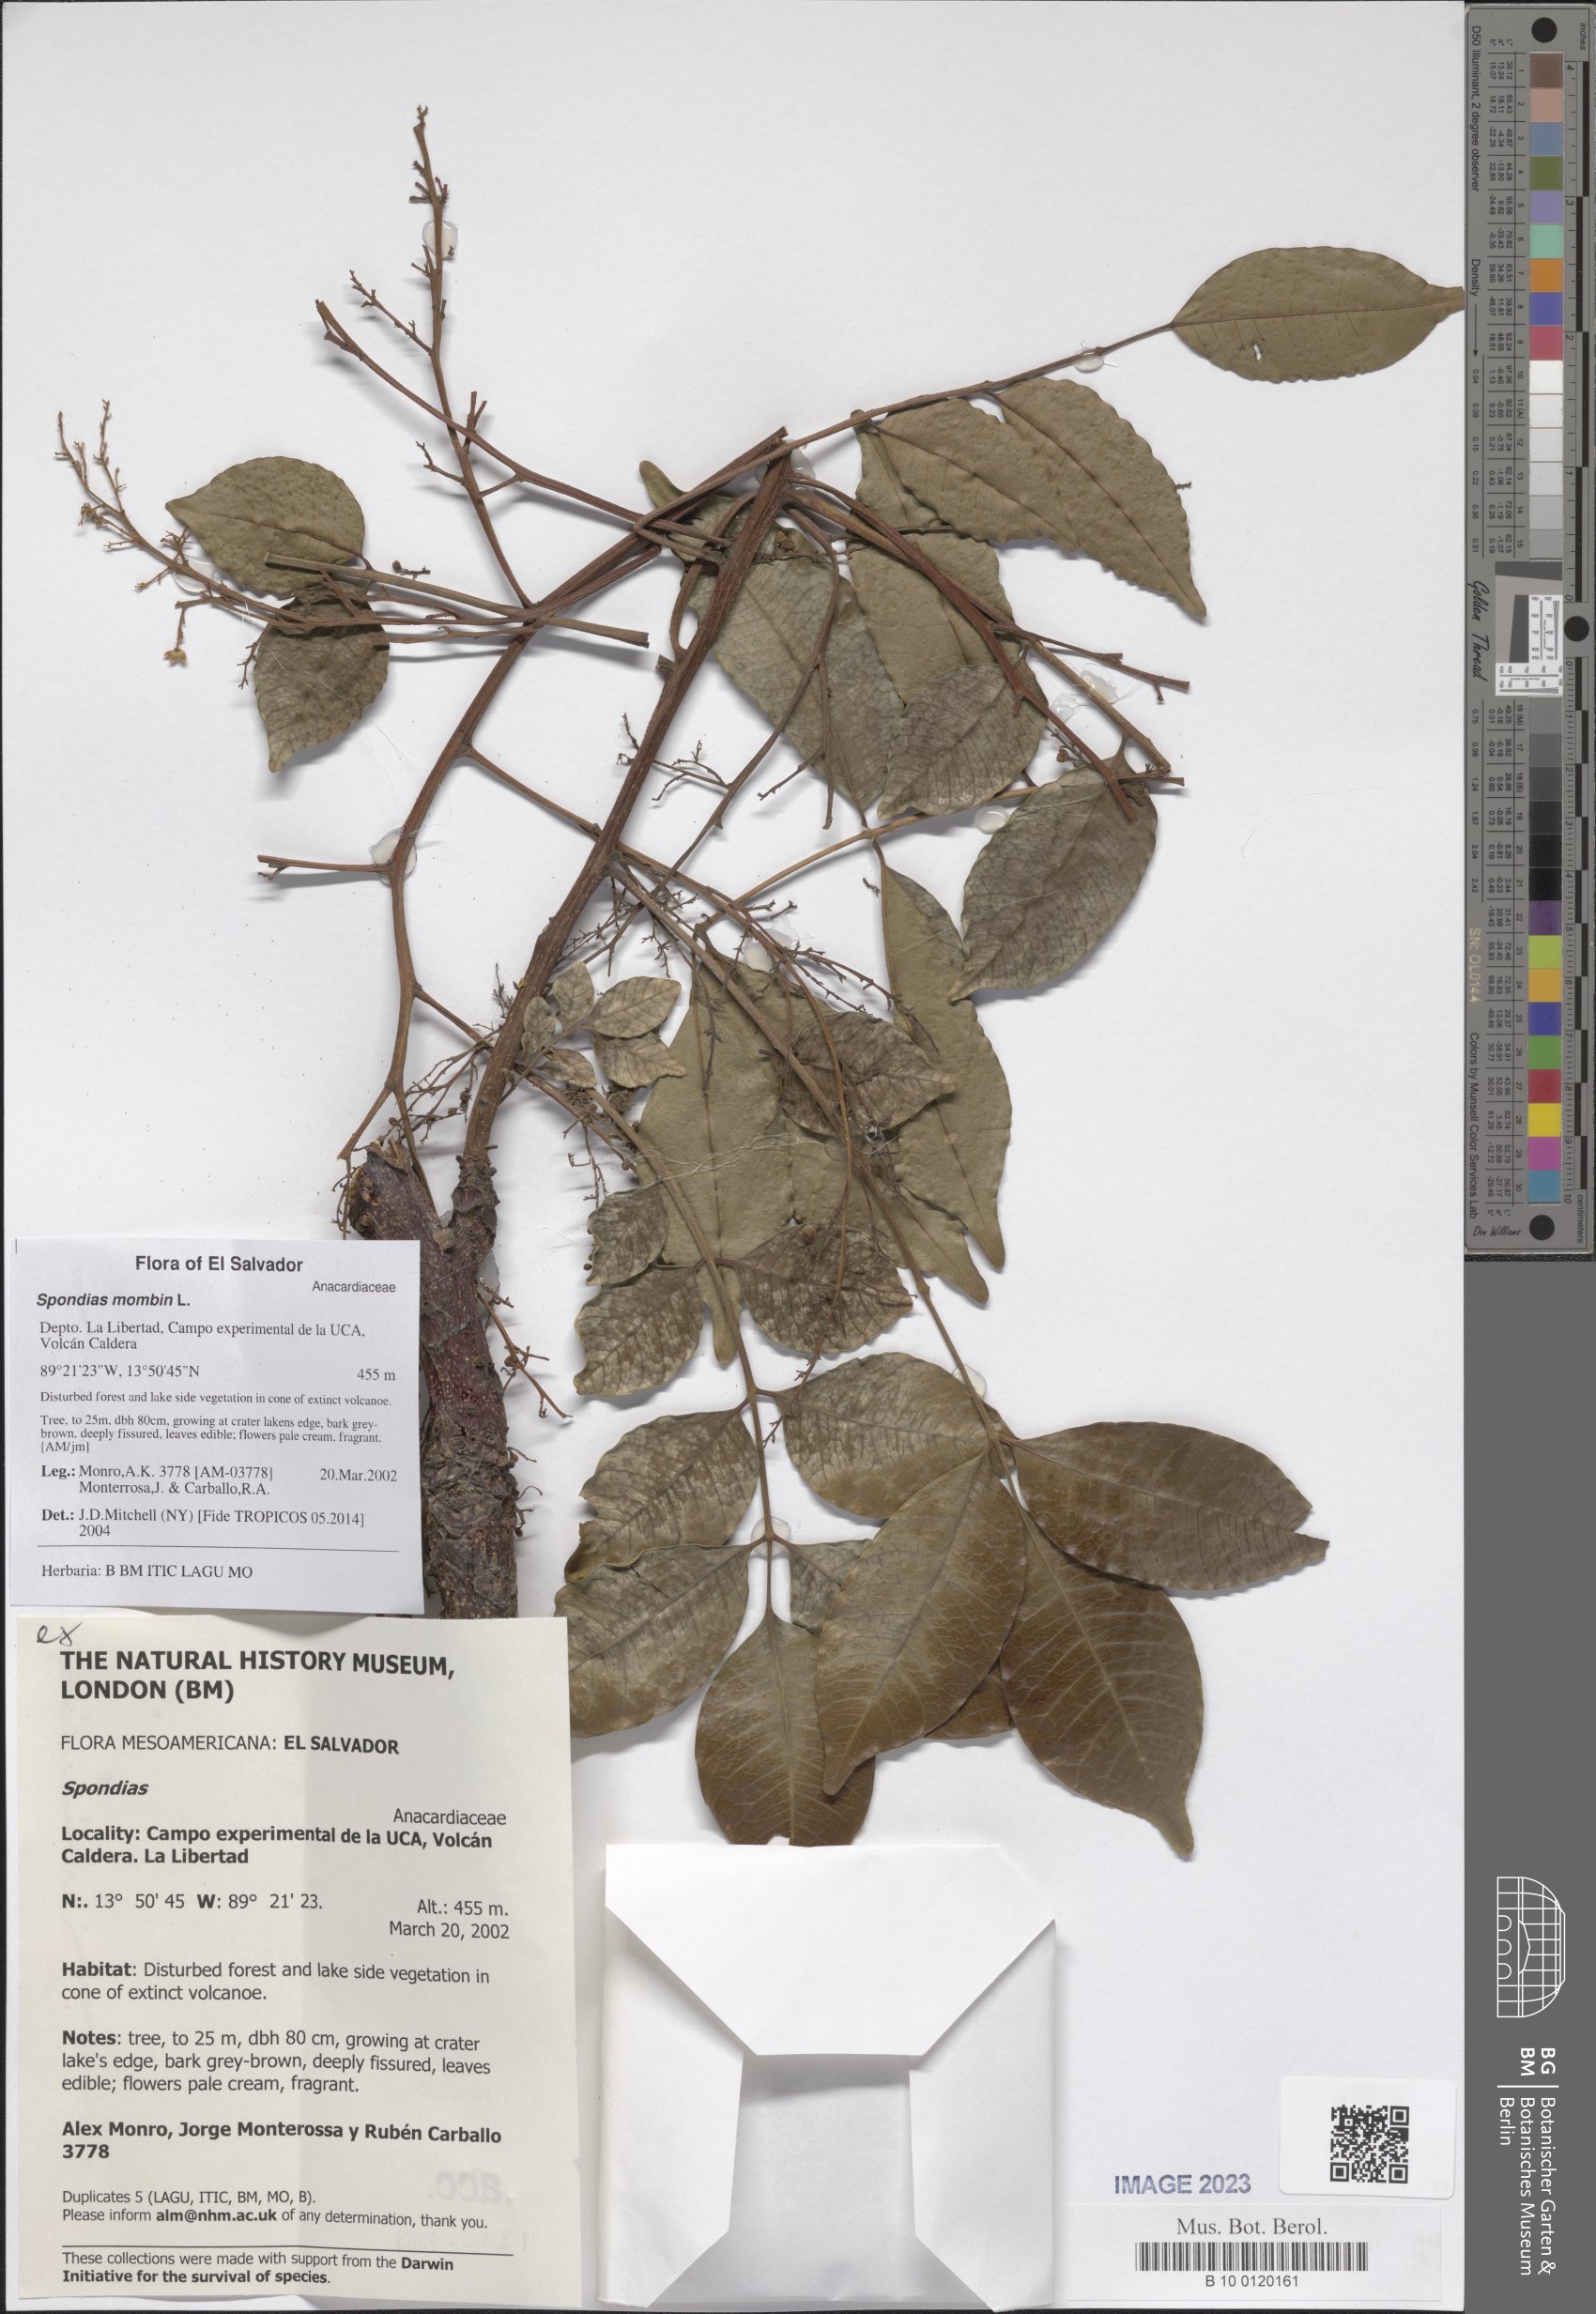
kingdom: Plantae
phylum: Tracheophyta
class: Magnoliopsida
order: Sapindales
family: Anacardiaceae
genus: Spondias
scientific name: Spondias mombin
